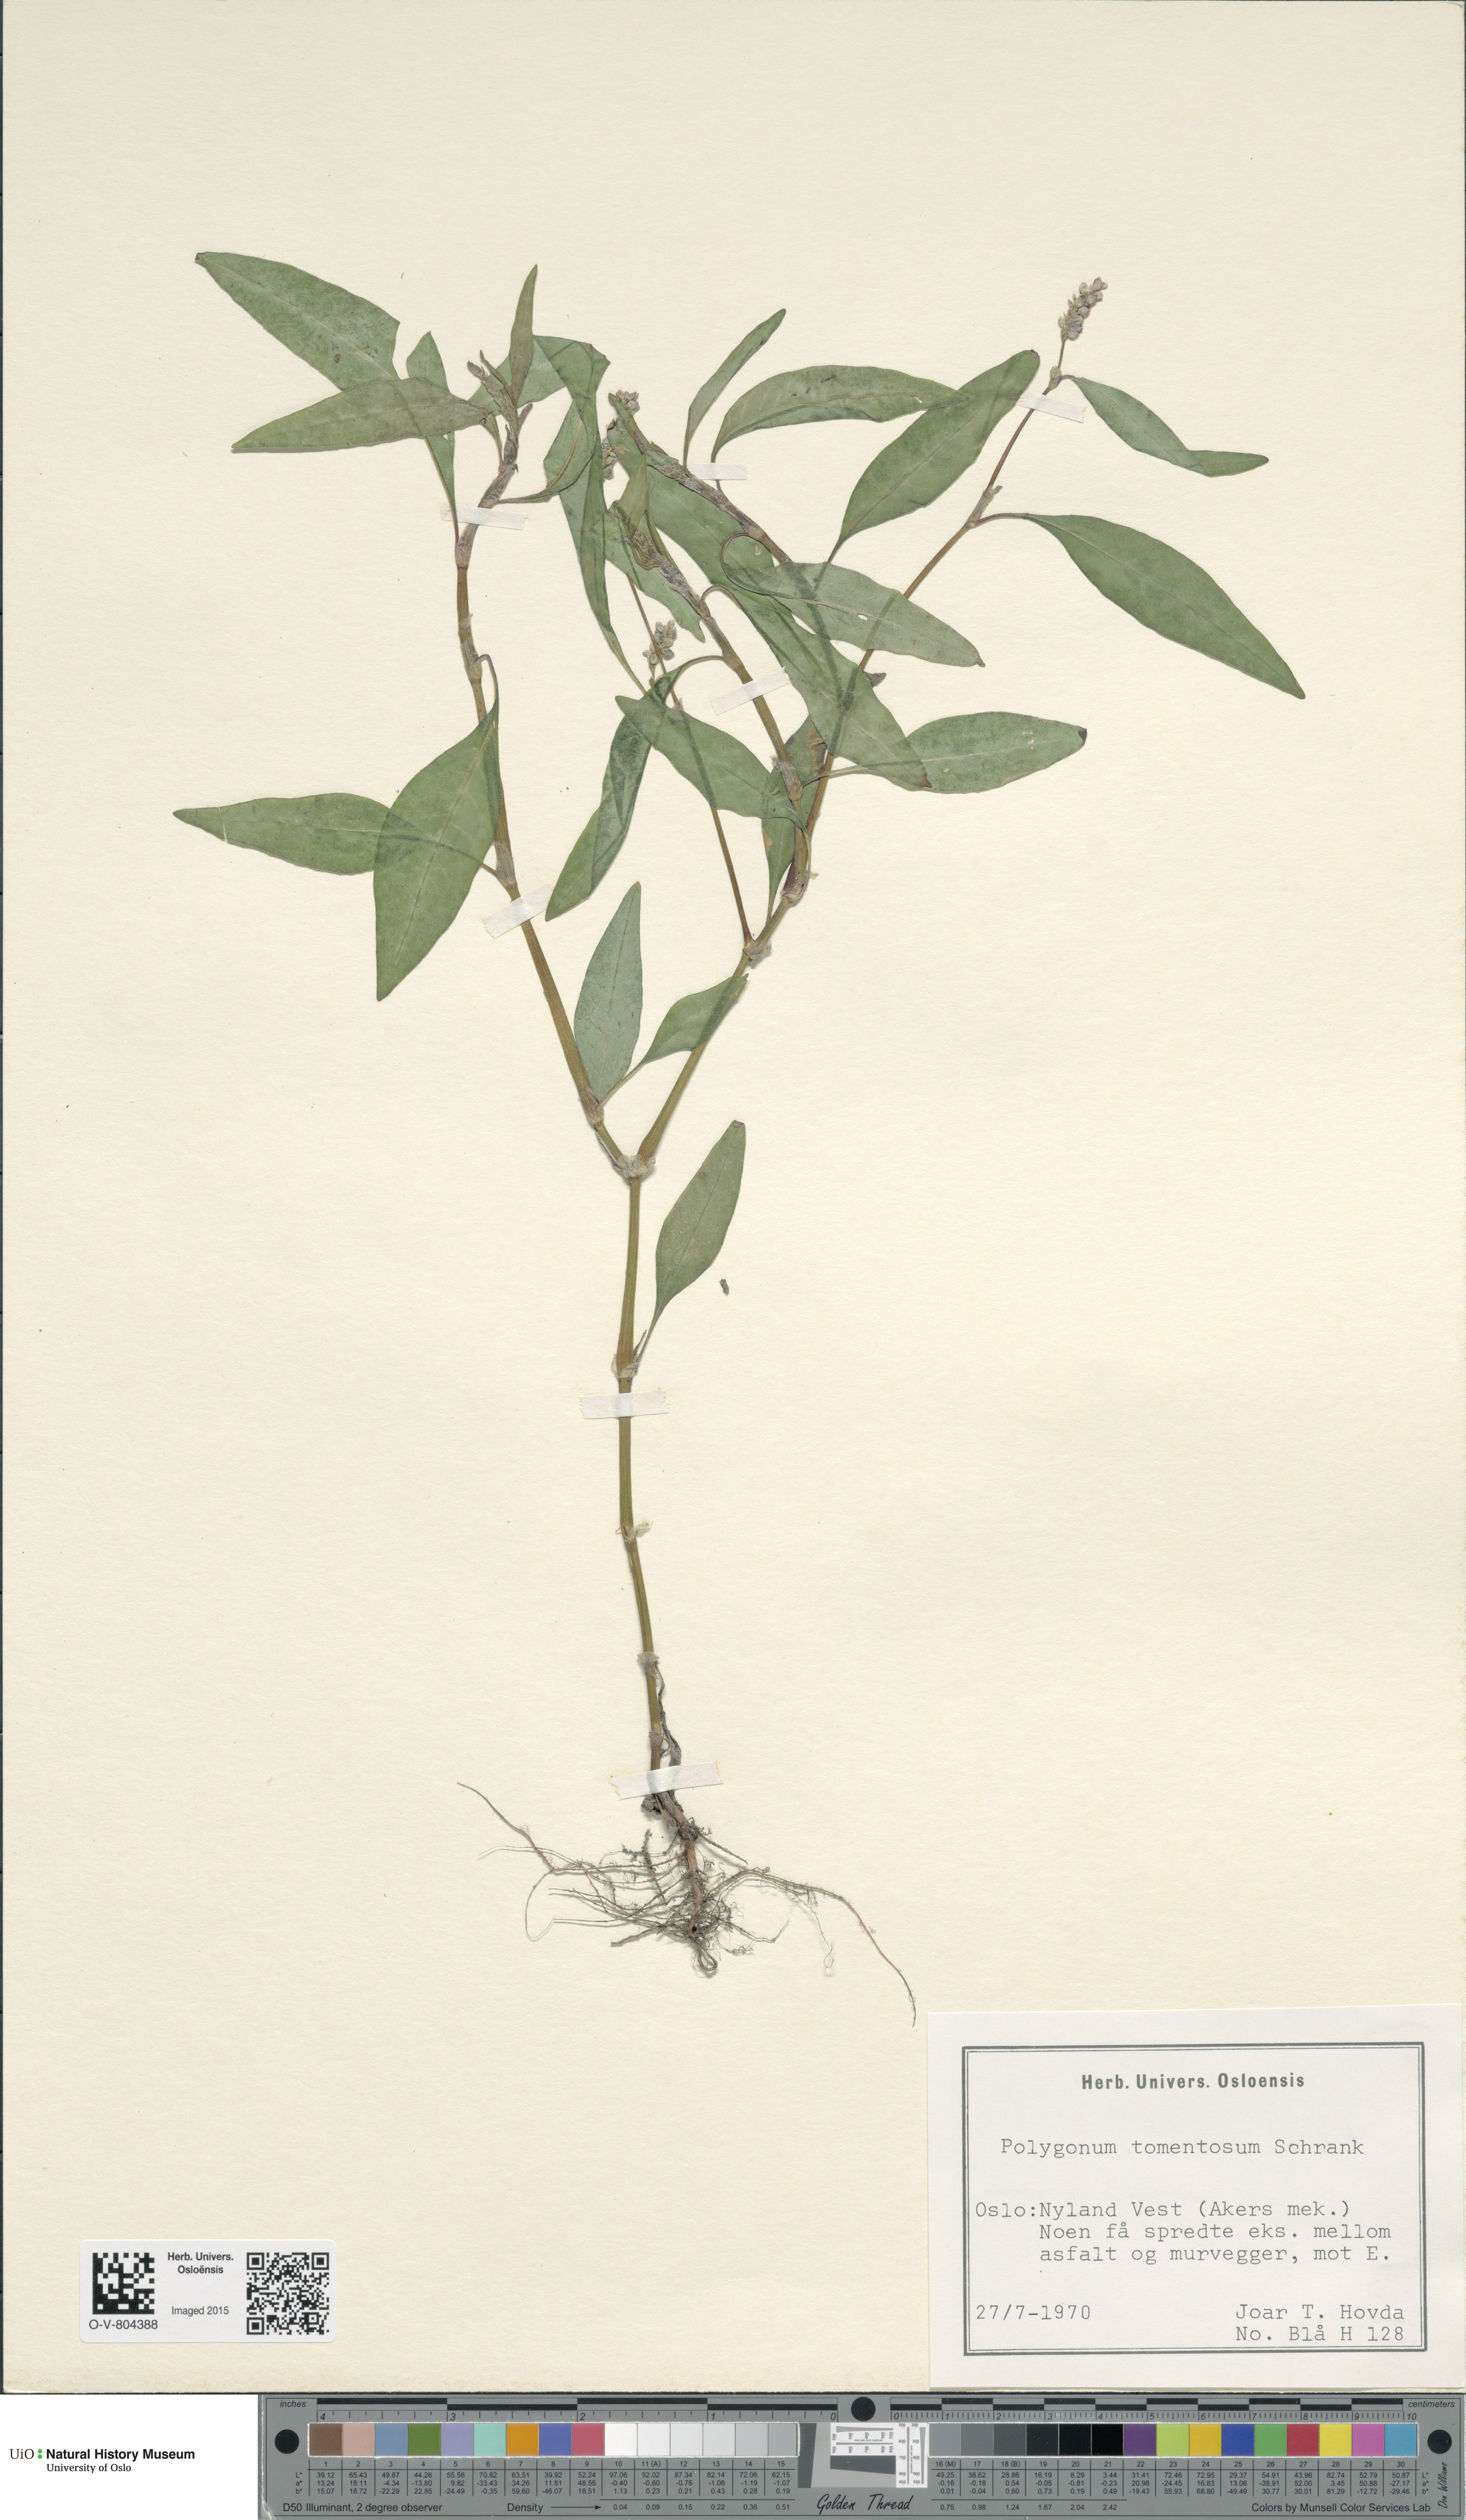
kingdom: Plantae
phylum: Tracheophyta
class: Magnoliopsida
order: Caryophyllales
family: Polygonaceae
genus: Persicaria
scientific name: Persicaria lapathifolia
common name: Curlytop knotweed
